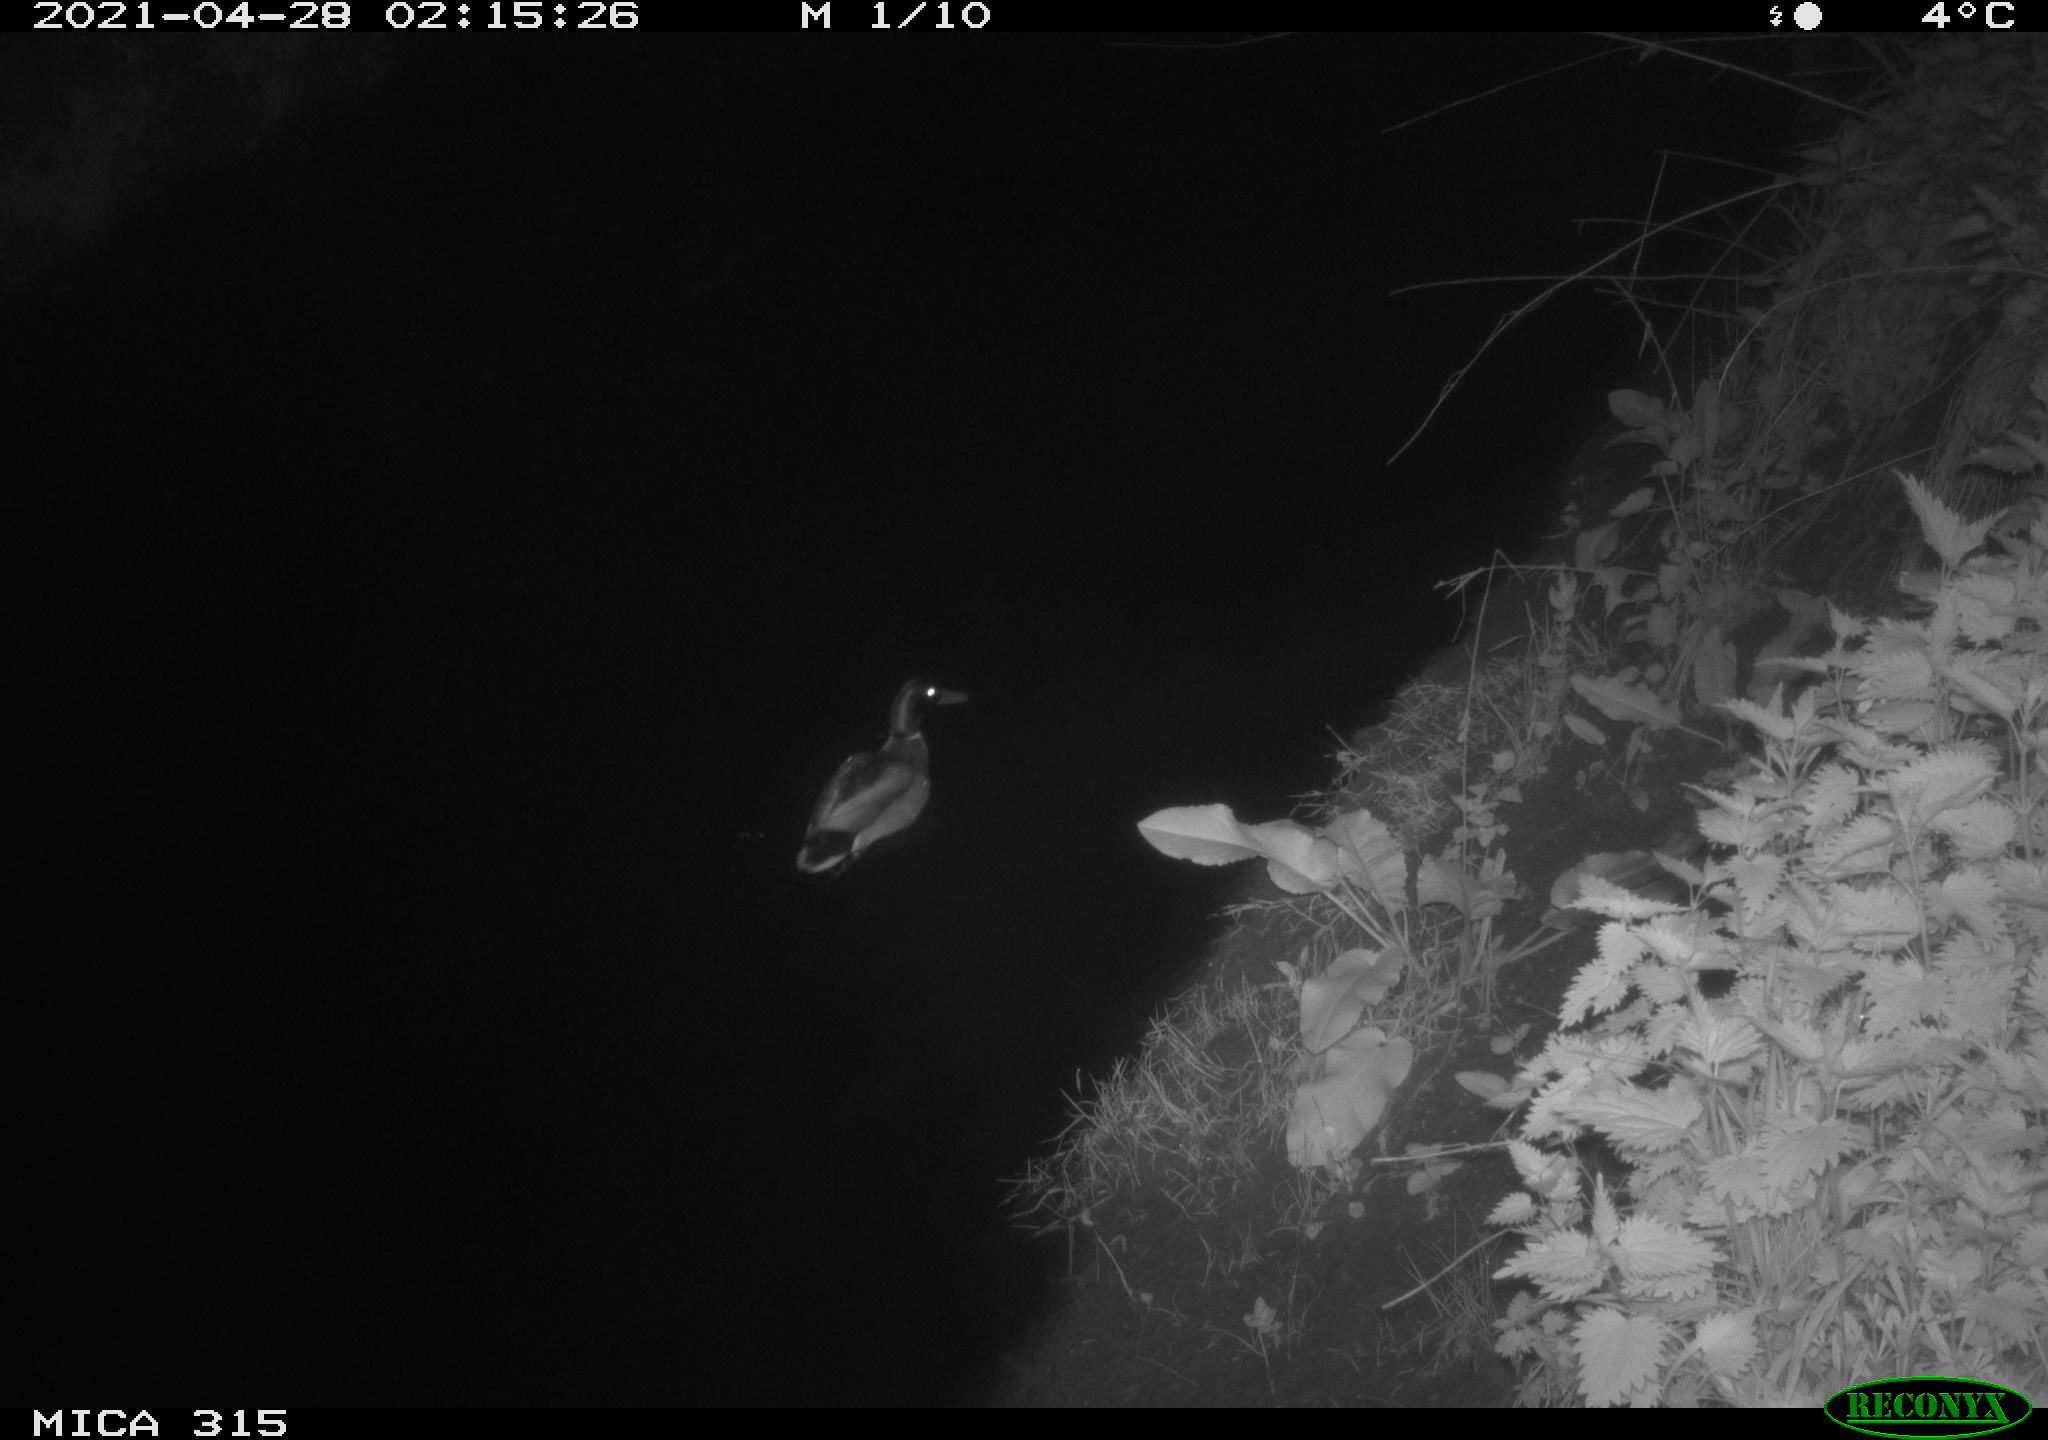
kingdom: Animalia
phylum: Chordata
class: Aves
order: Anseriformes
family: Anatidae
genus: Anas
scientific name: Anas
